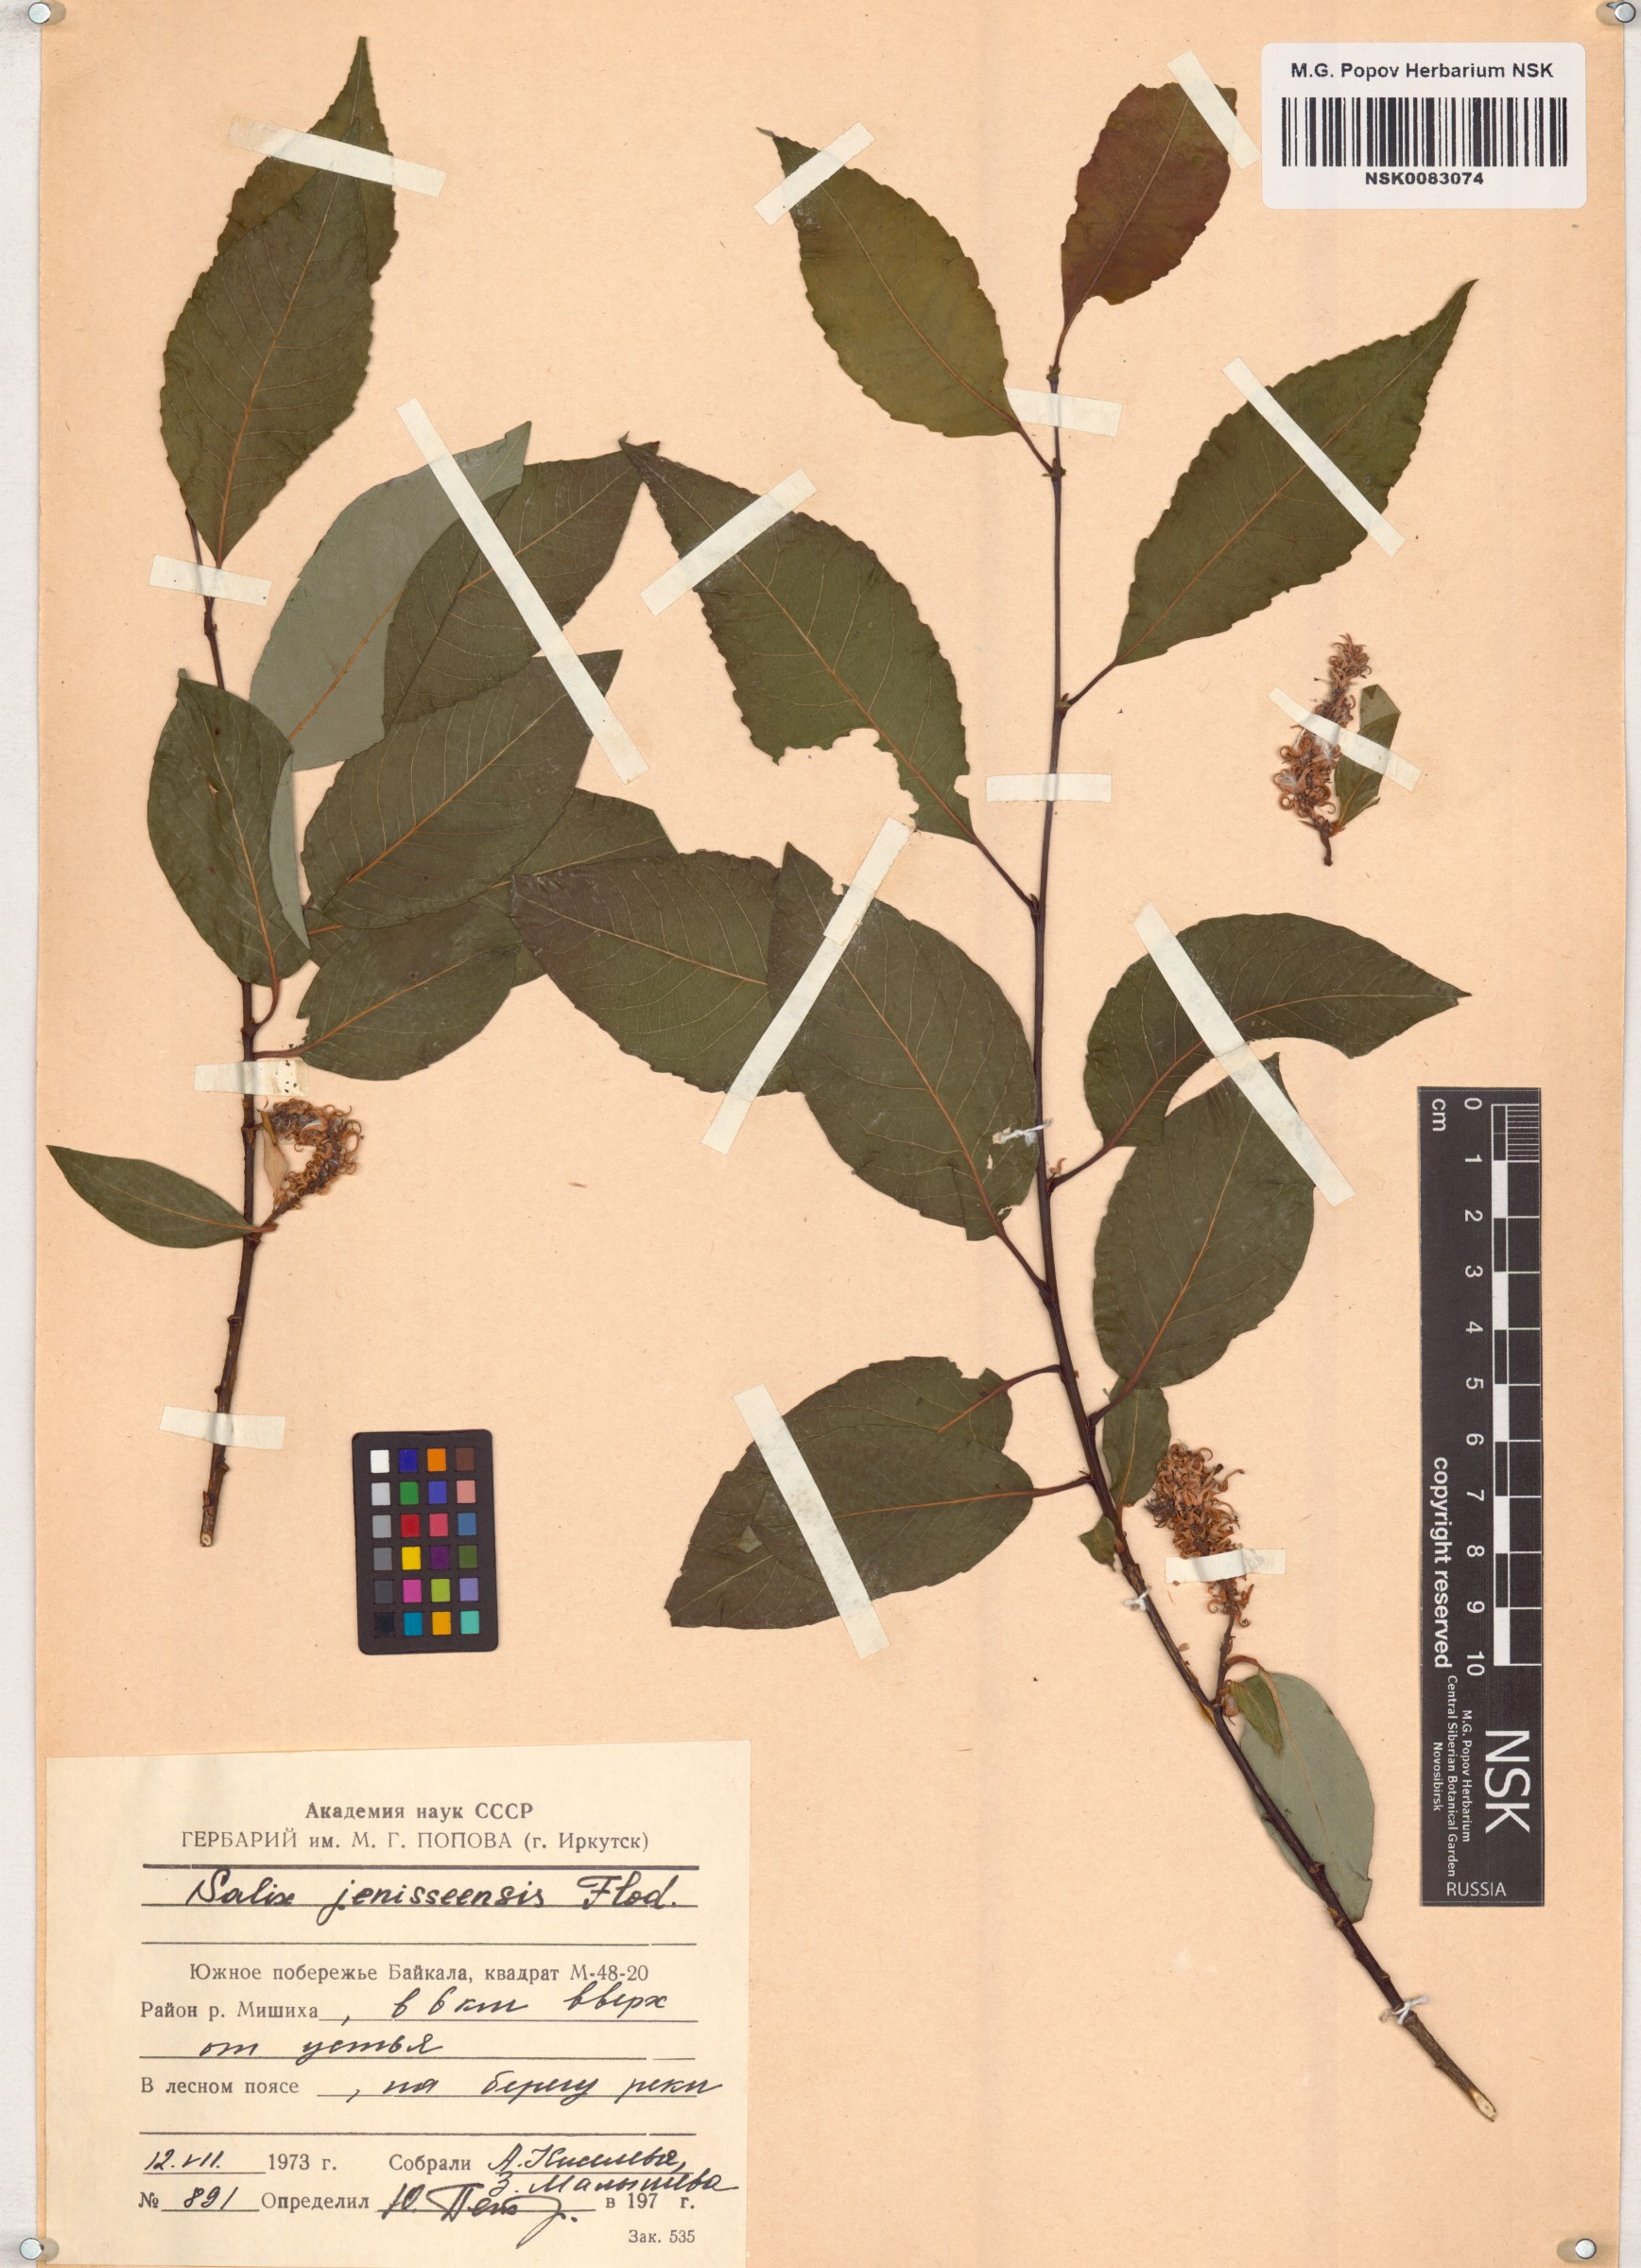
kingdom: Plantae
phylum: Tracheophyta
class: Magnoliopsida
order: Malpighiales
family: Salicaceae
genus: Salix
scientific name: Salix jenisseensis
